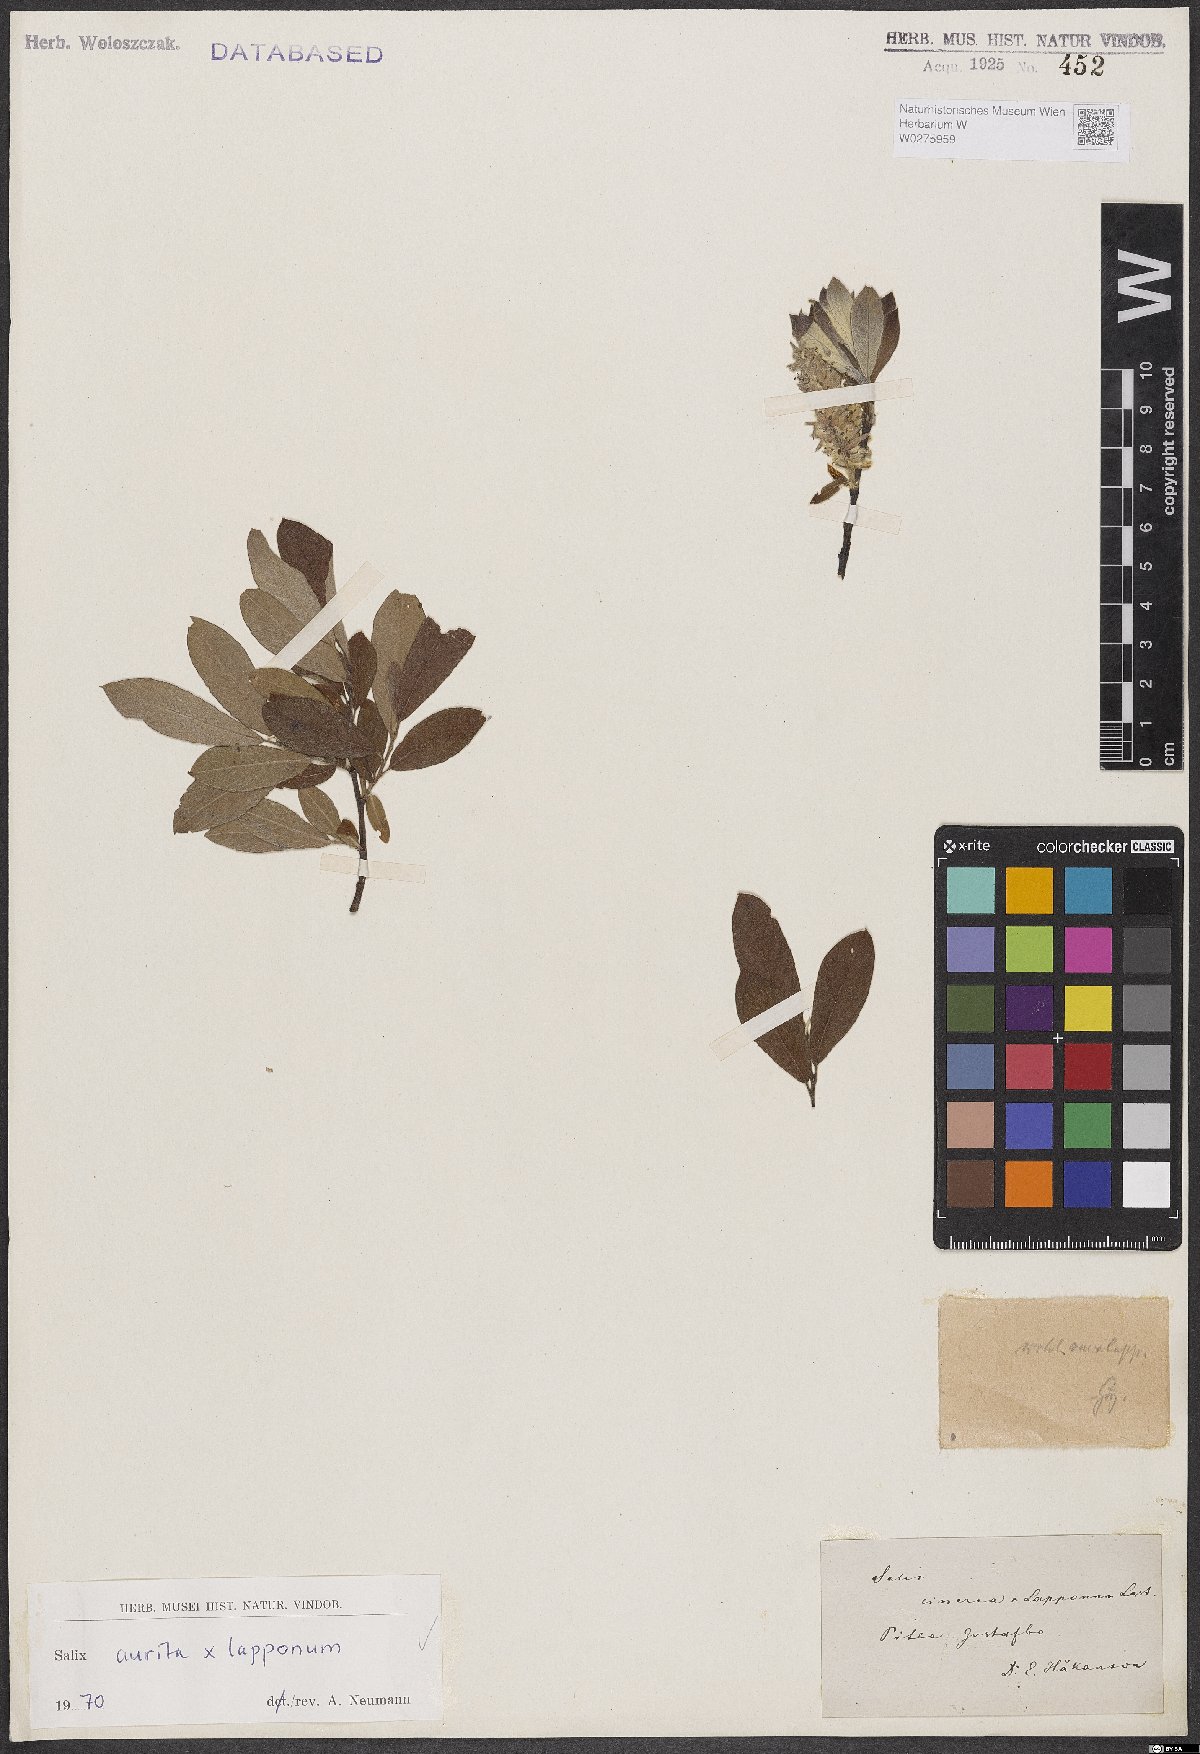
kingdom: Plantae
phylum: Tracheophyta
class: Magnoliopsida
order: Malpighiales
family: Salicaceae
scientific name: Salicaceae
